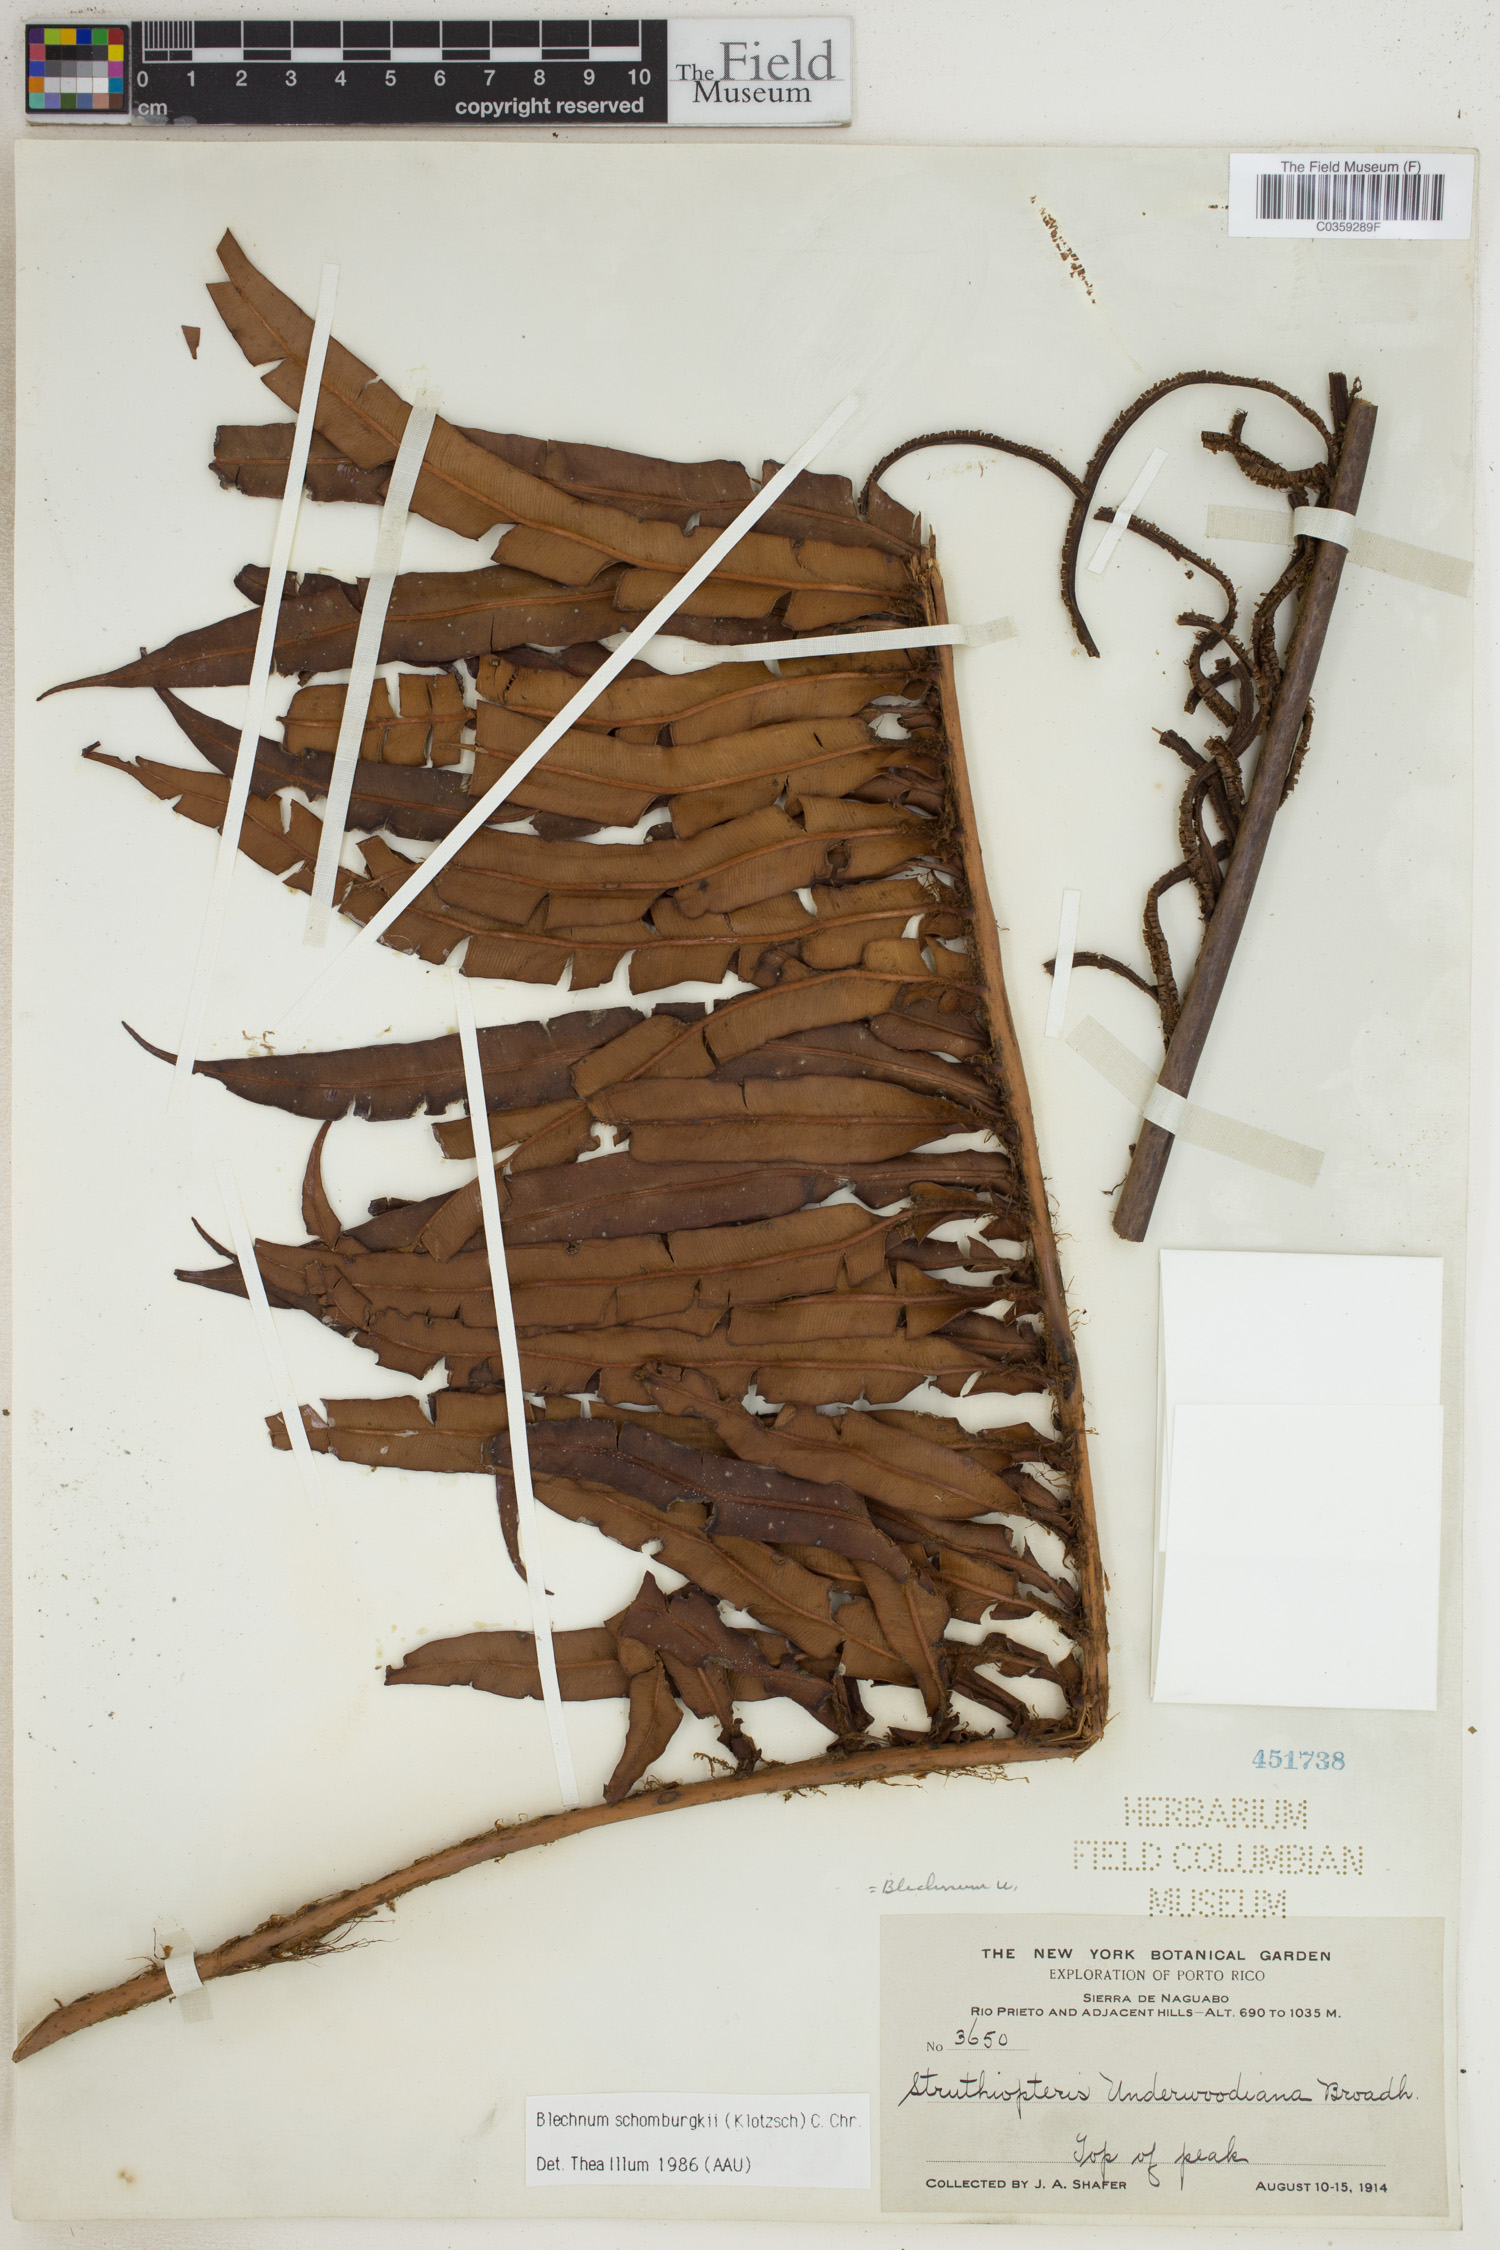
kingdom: Plantae
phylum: Tracheophyta
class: Polypodiopsida
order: Polypodiales
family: Blechnaceae
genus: Lomariocycas
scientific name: Lomariocycas schomburgkii
